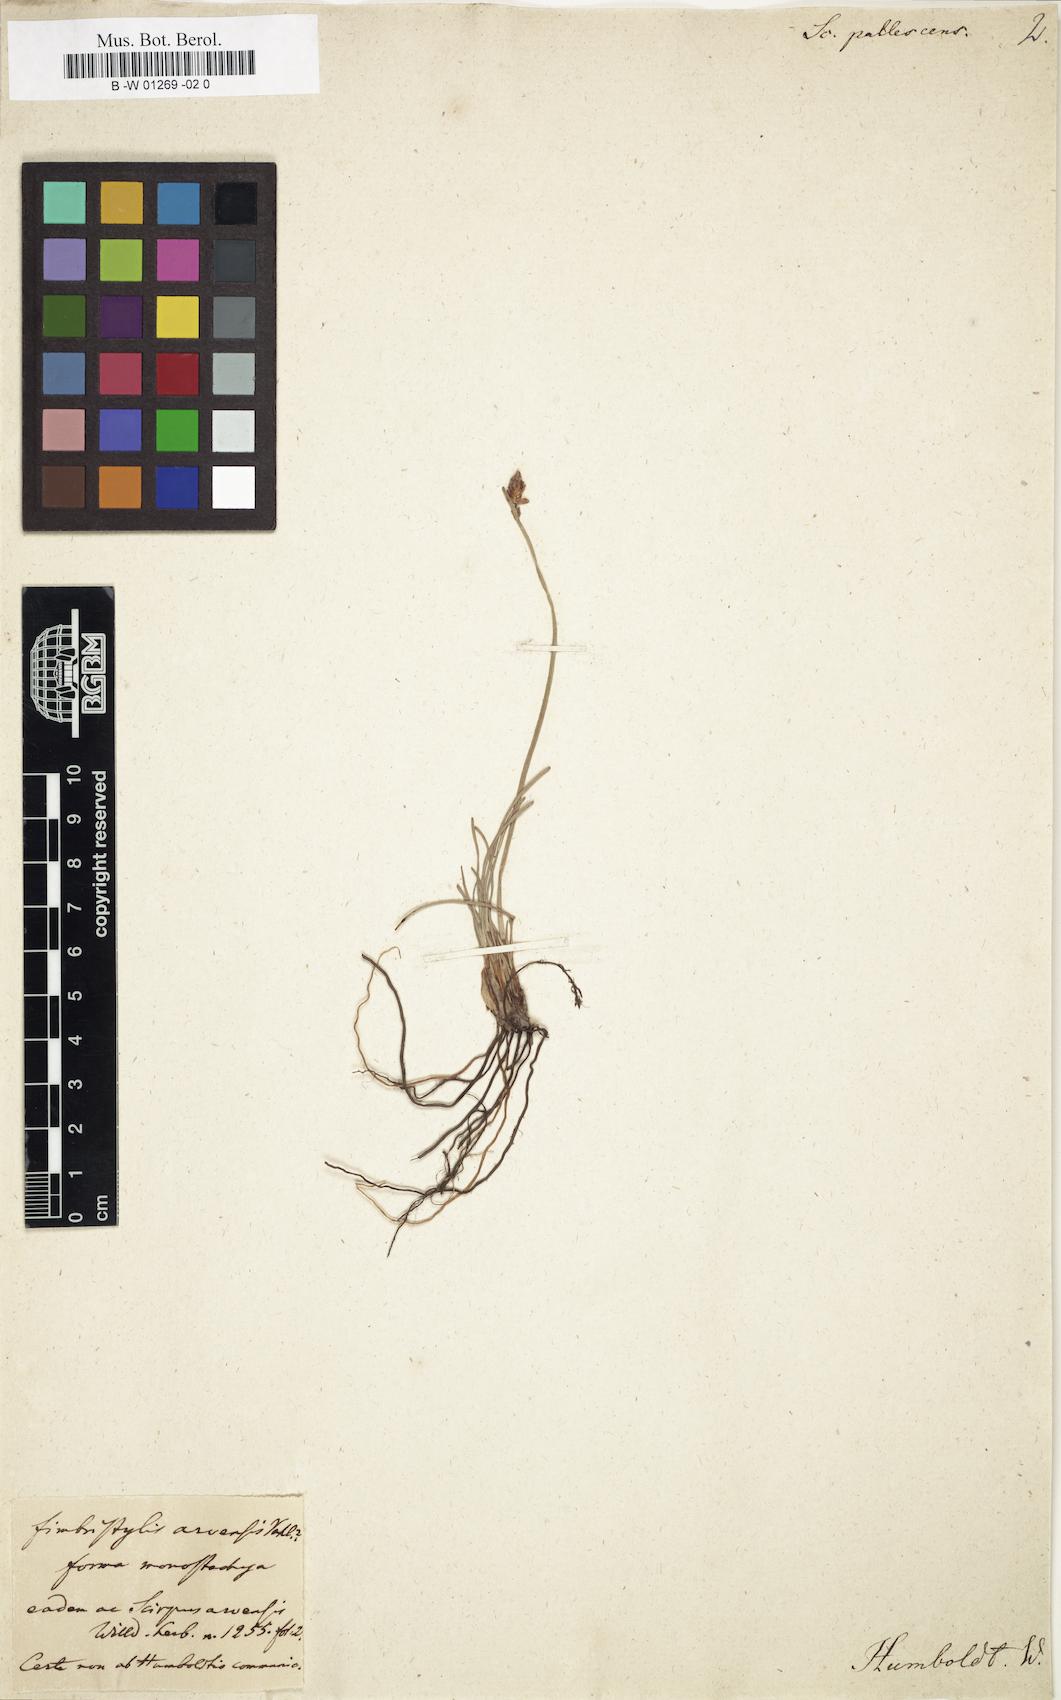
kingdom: Plantae
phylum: Tracheophyta
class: Liliopsida
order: Poales
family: Cyperaceae
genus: Fimbristylis
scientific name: Fimbristylis dichotoma
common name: Forked fimbry
